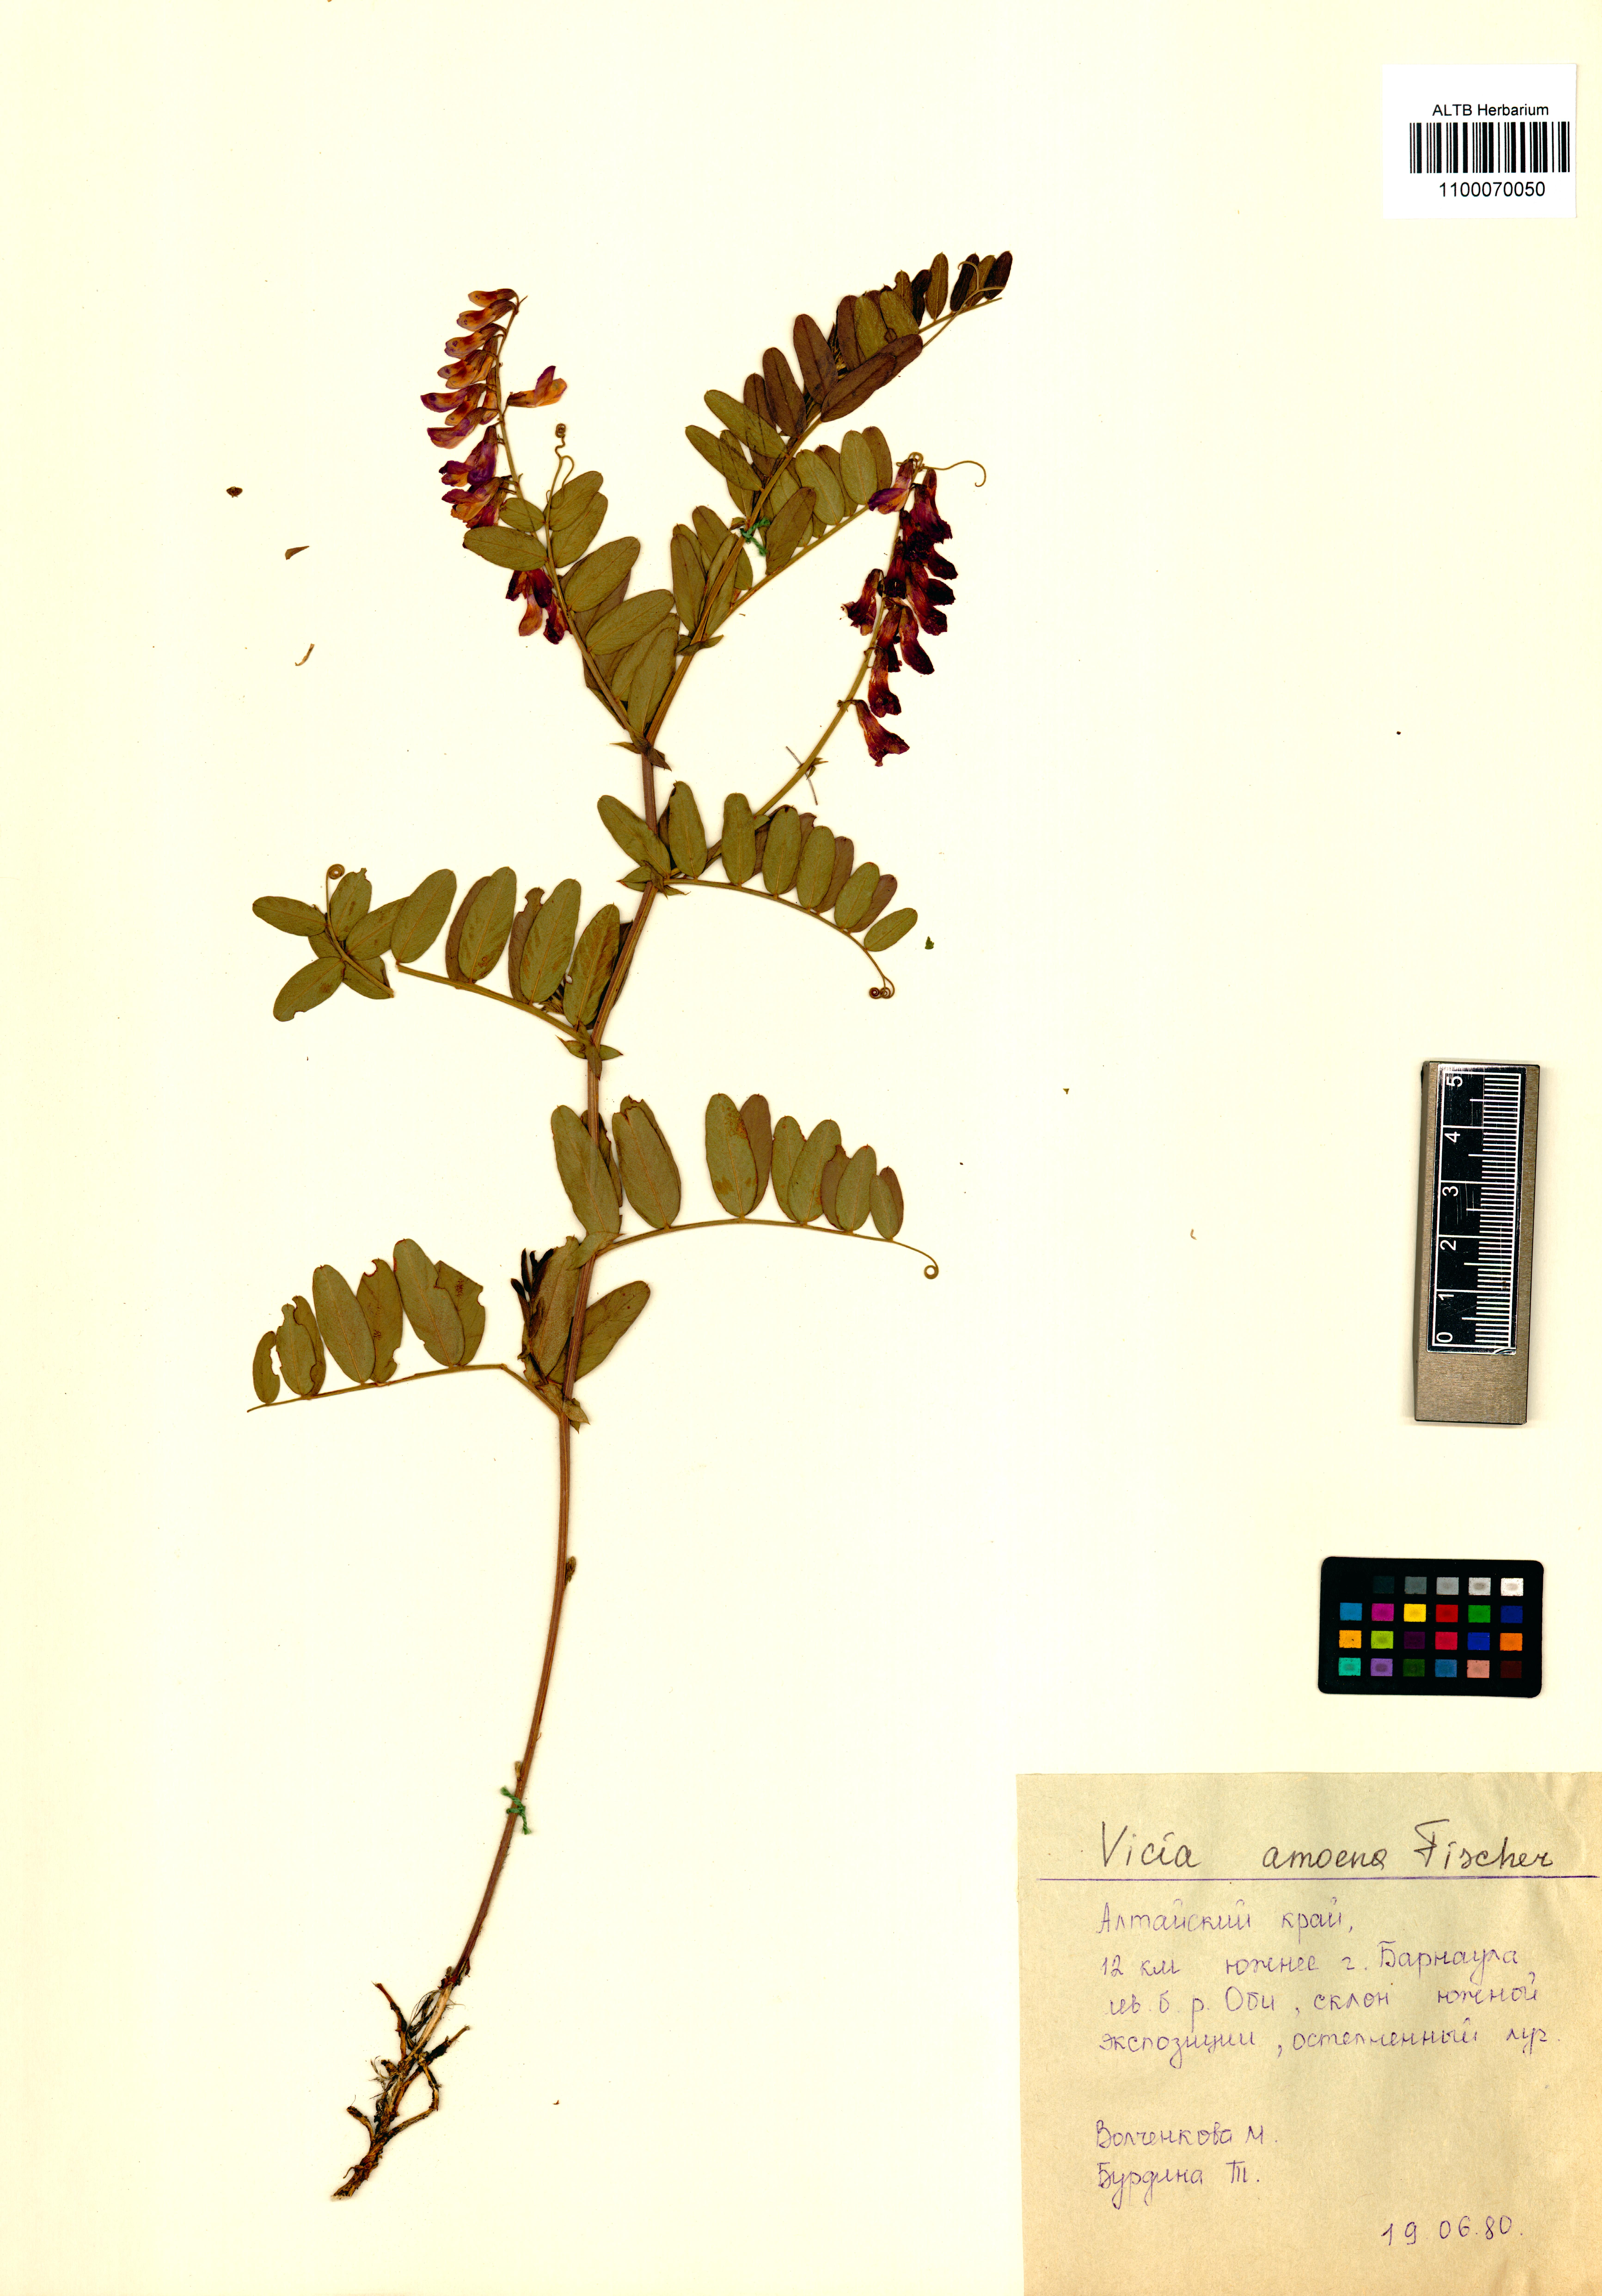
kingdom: Plantae
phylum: Tracheophyta
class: Magnoliopsida
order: Fabales
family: Fabaceae
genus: Vicia
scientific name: Vicia amoena
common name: Cheder ebs
